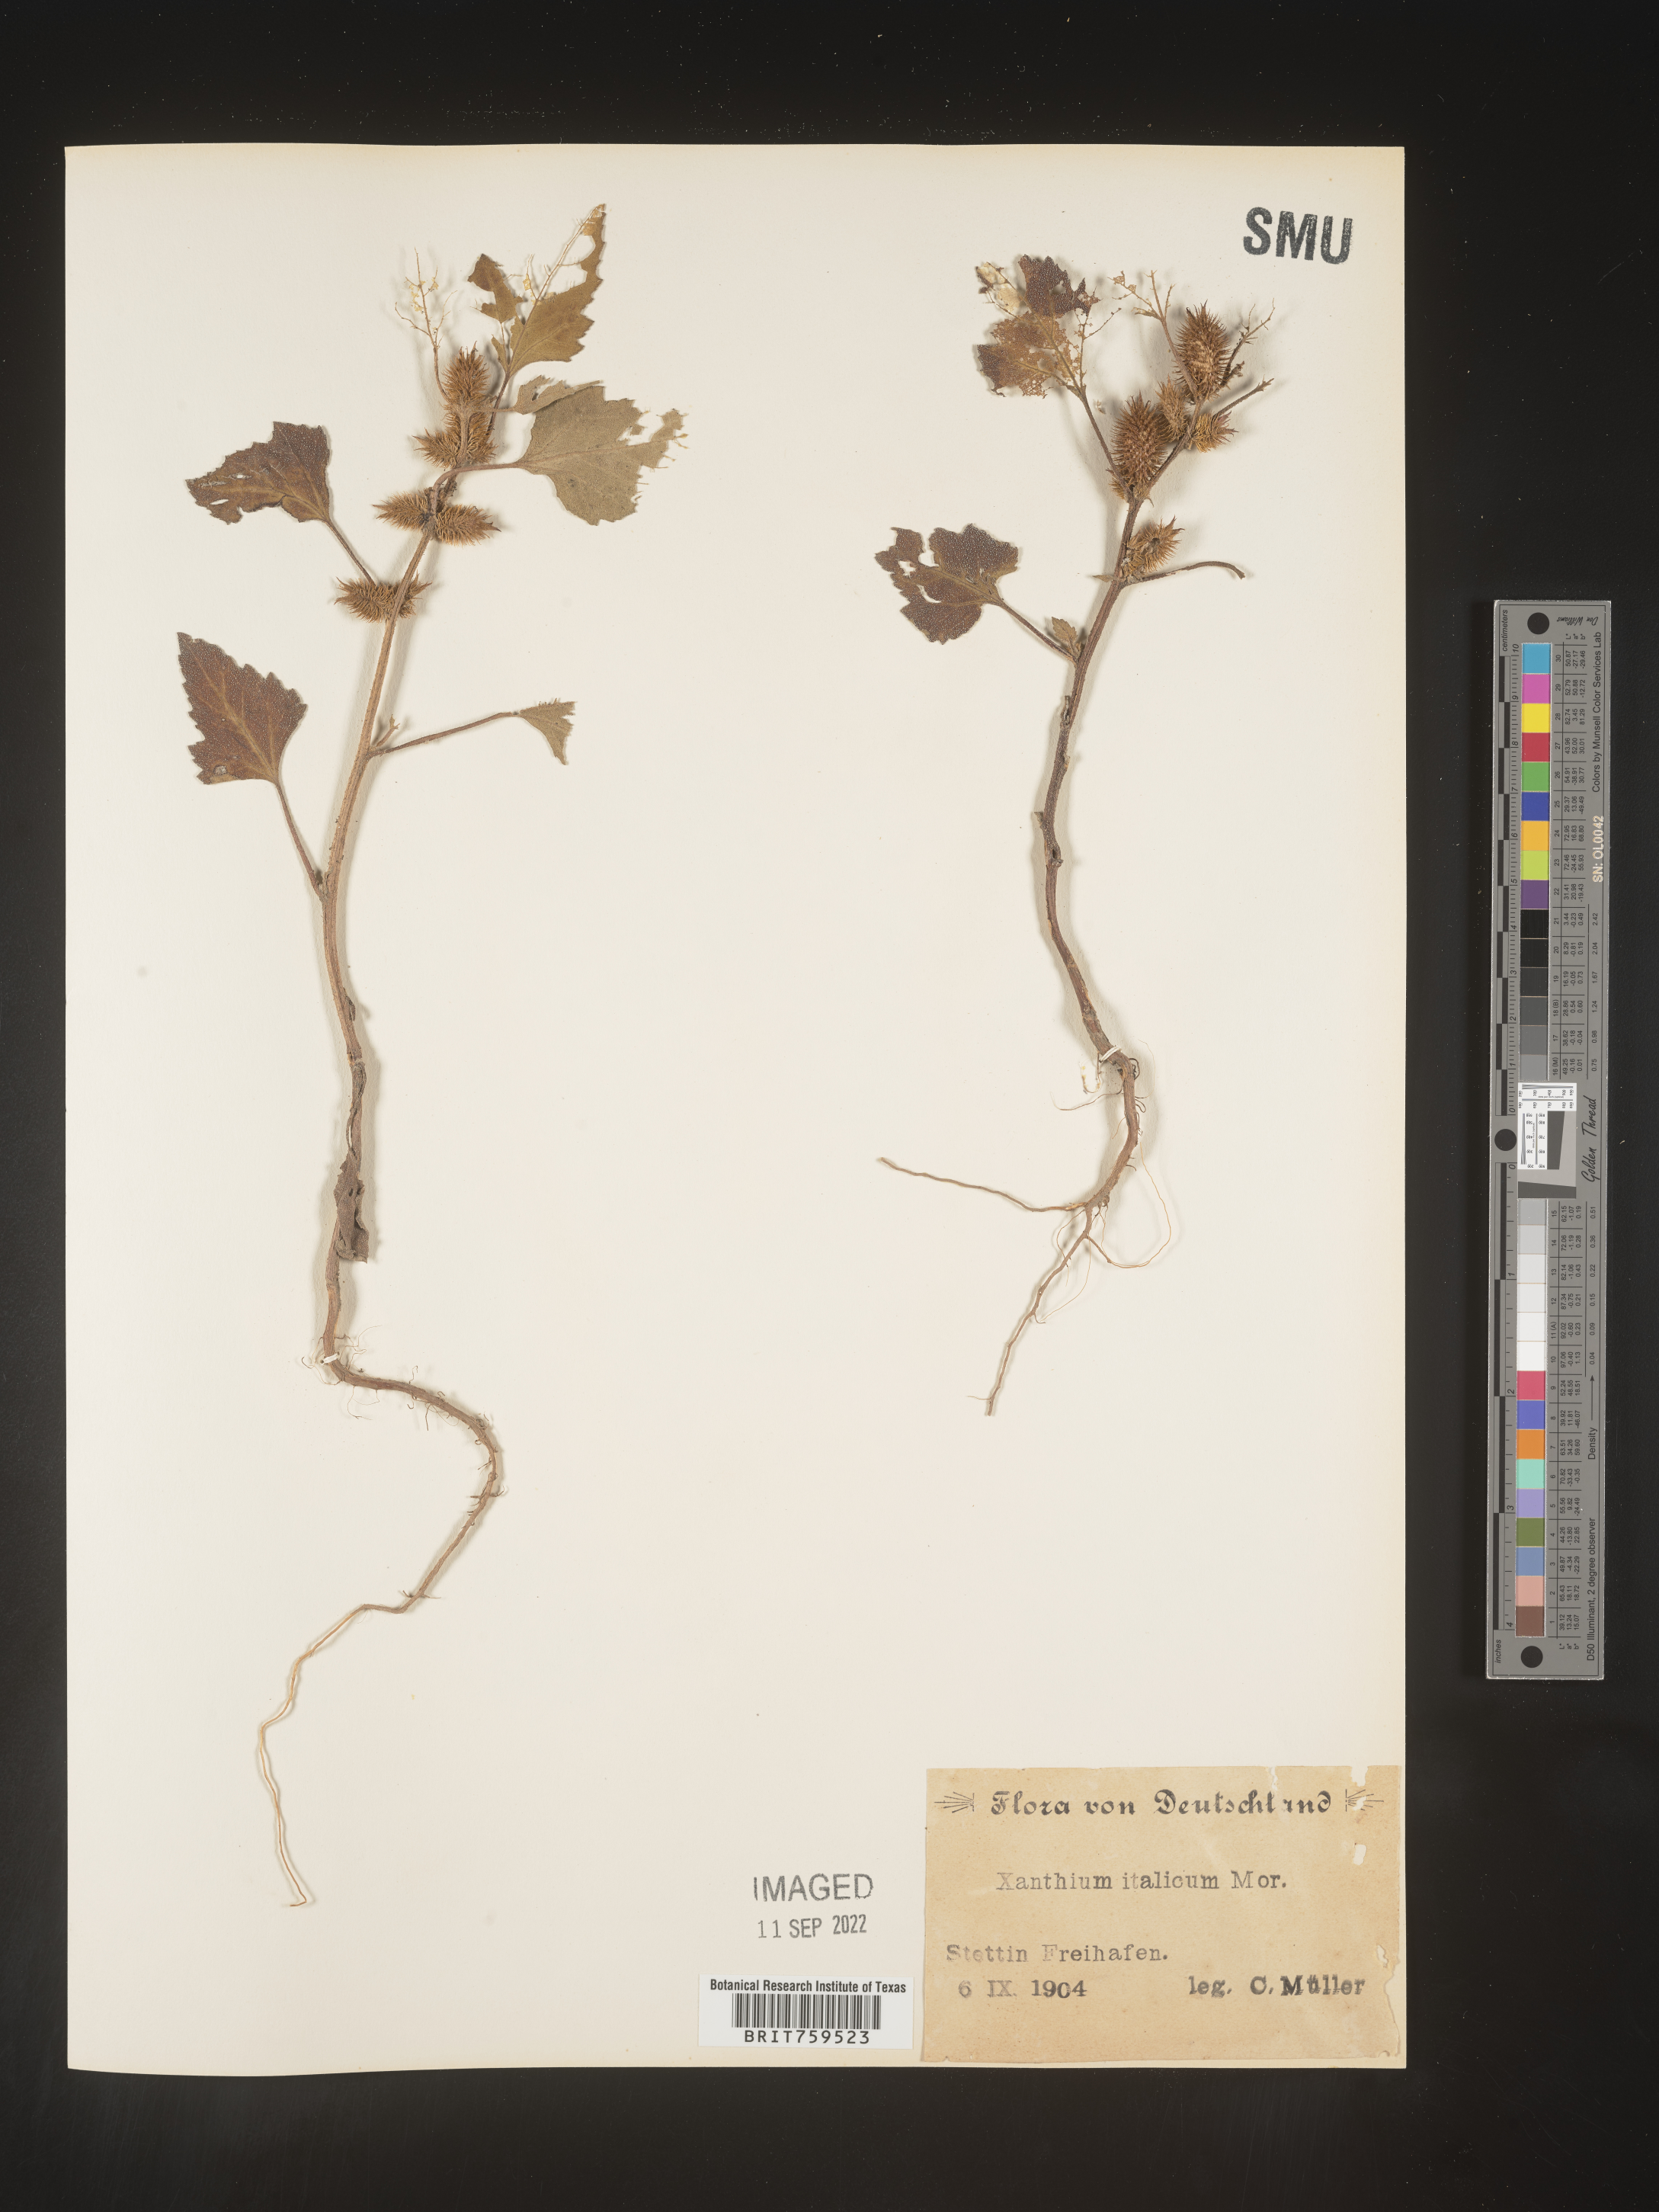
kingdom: Plantae
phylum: Tracheophyta
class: Magnoliopsida
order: Asterales
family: Asteraceae
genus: Xanthium
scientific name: Xanthium
